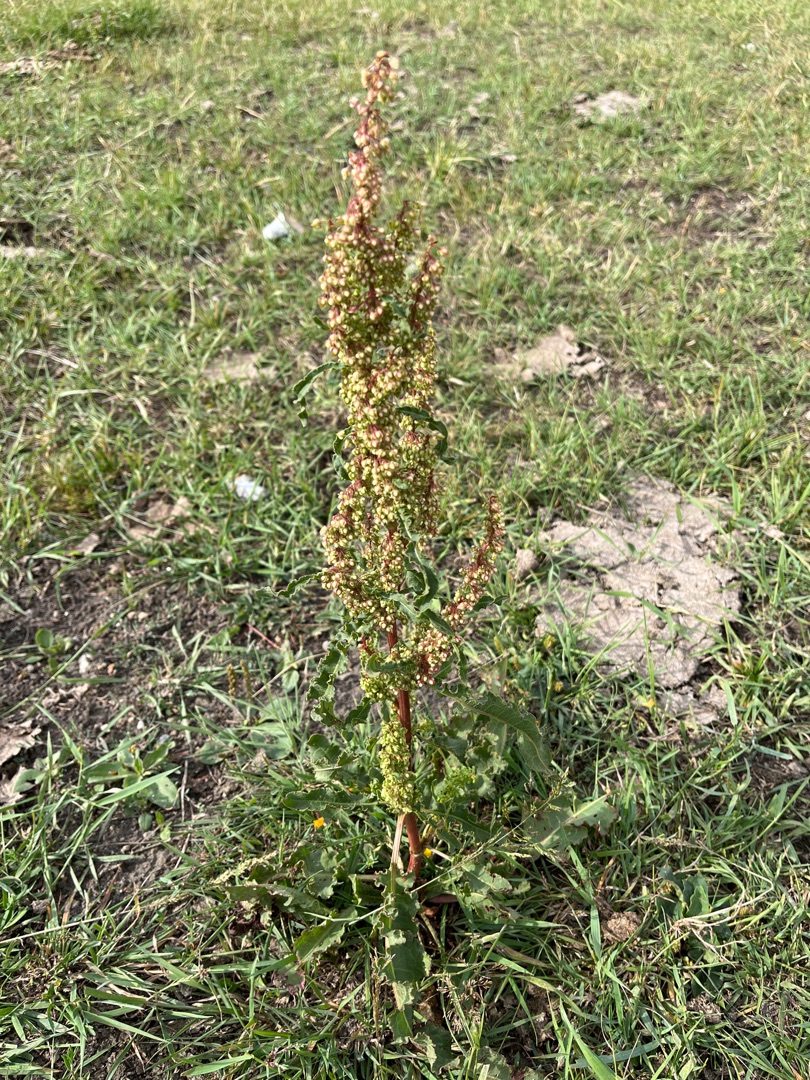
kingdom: Plantae
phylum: Tracheophyta
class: Magnoliopsida
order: Caryophyllales
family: Polygonaceae
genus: Rumex
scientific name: Rumex crispus
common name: Kruset skræppe
